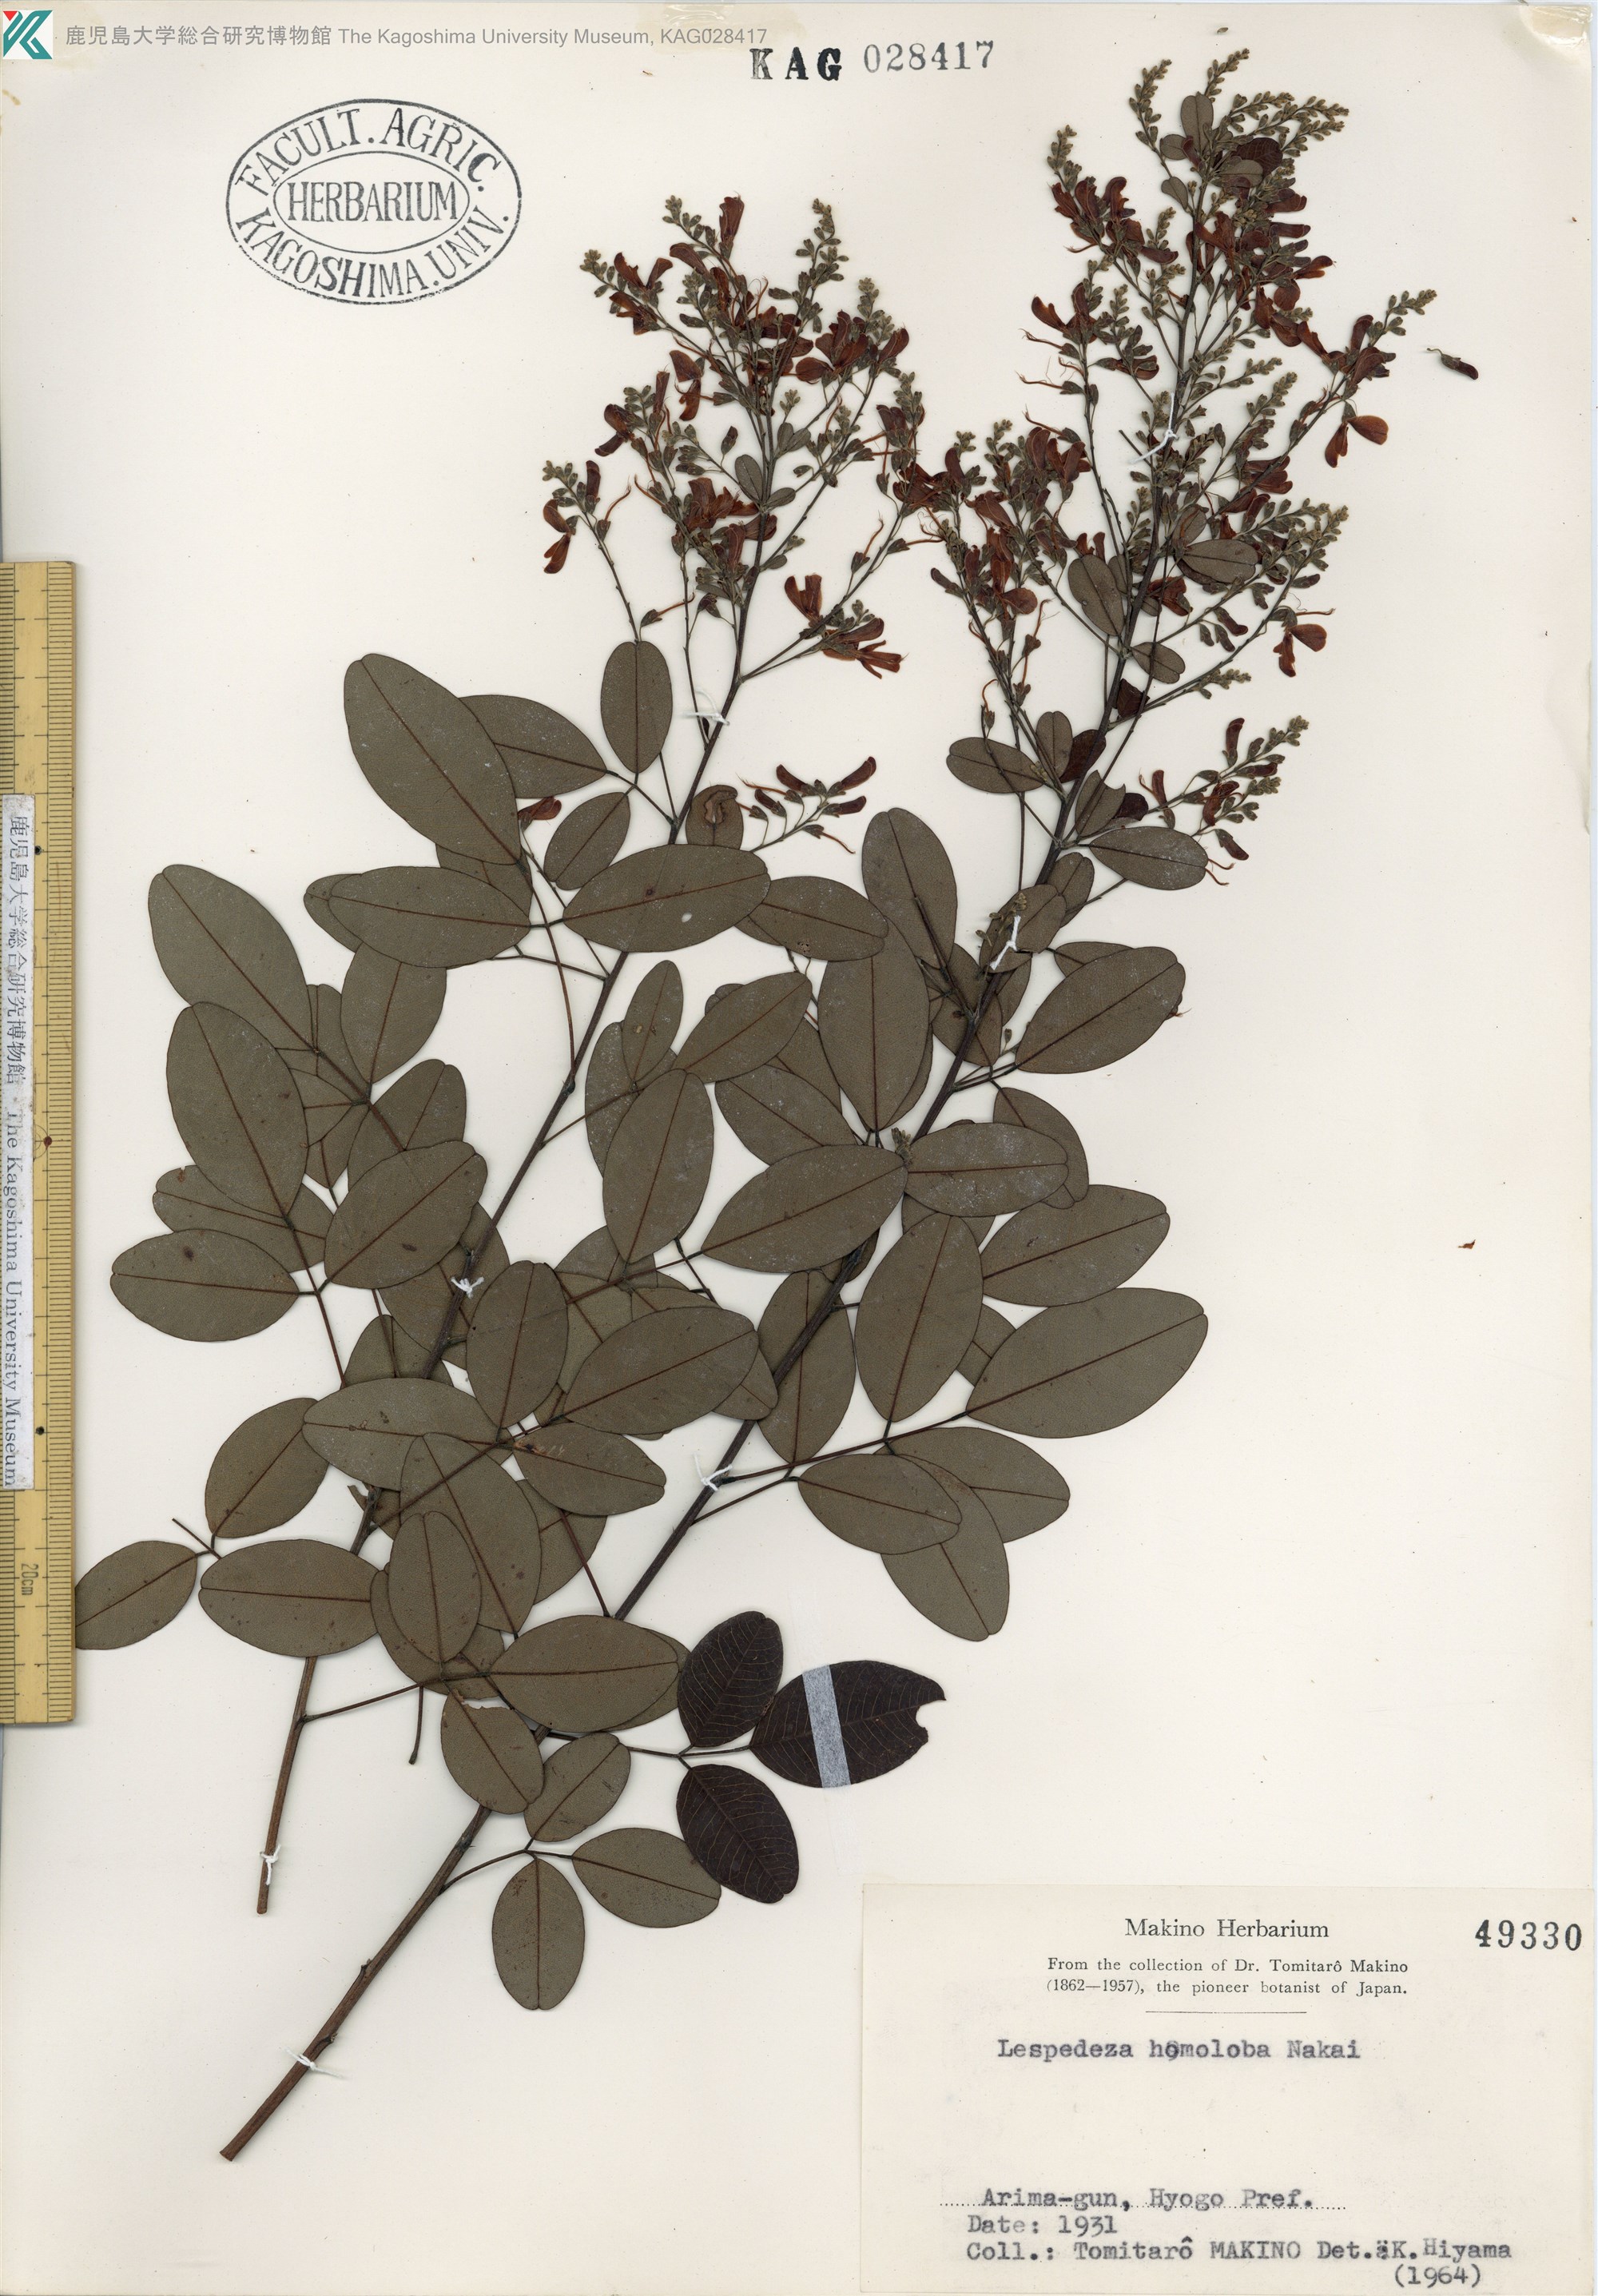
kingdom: Plantae
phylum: Tracheophyta
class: Magnoliopsida
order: Fabales
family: Fabaceae
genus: Lespedeza
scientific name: Lespedeza homoloba
